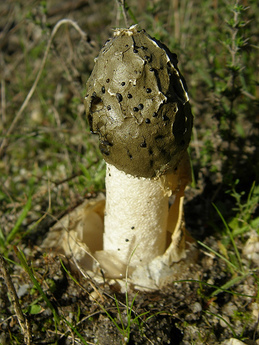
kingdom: Fungi
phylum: Basidiomycota
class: Agaricomycetes
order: Phallales
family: Phallaceae
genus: Phallus
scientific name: Phallus impudicus
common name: Common stinkhorn
